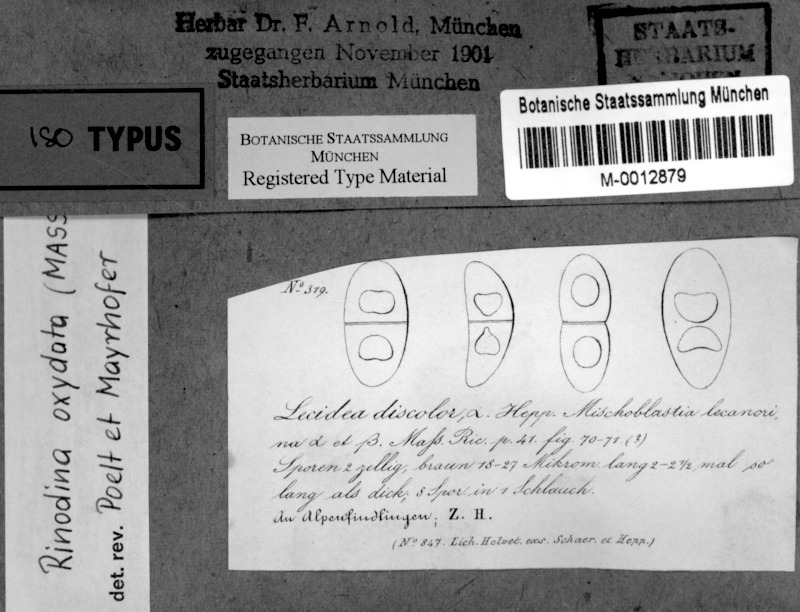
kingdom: Fungi
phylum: Ascomycota
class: Lecanoromycetes
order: Caliciales
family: Physciaceae
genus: Mischoblastia
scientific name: Mischoblastia oxydata
